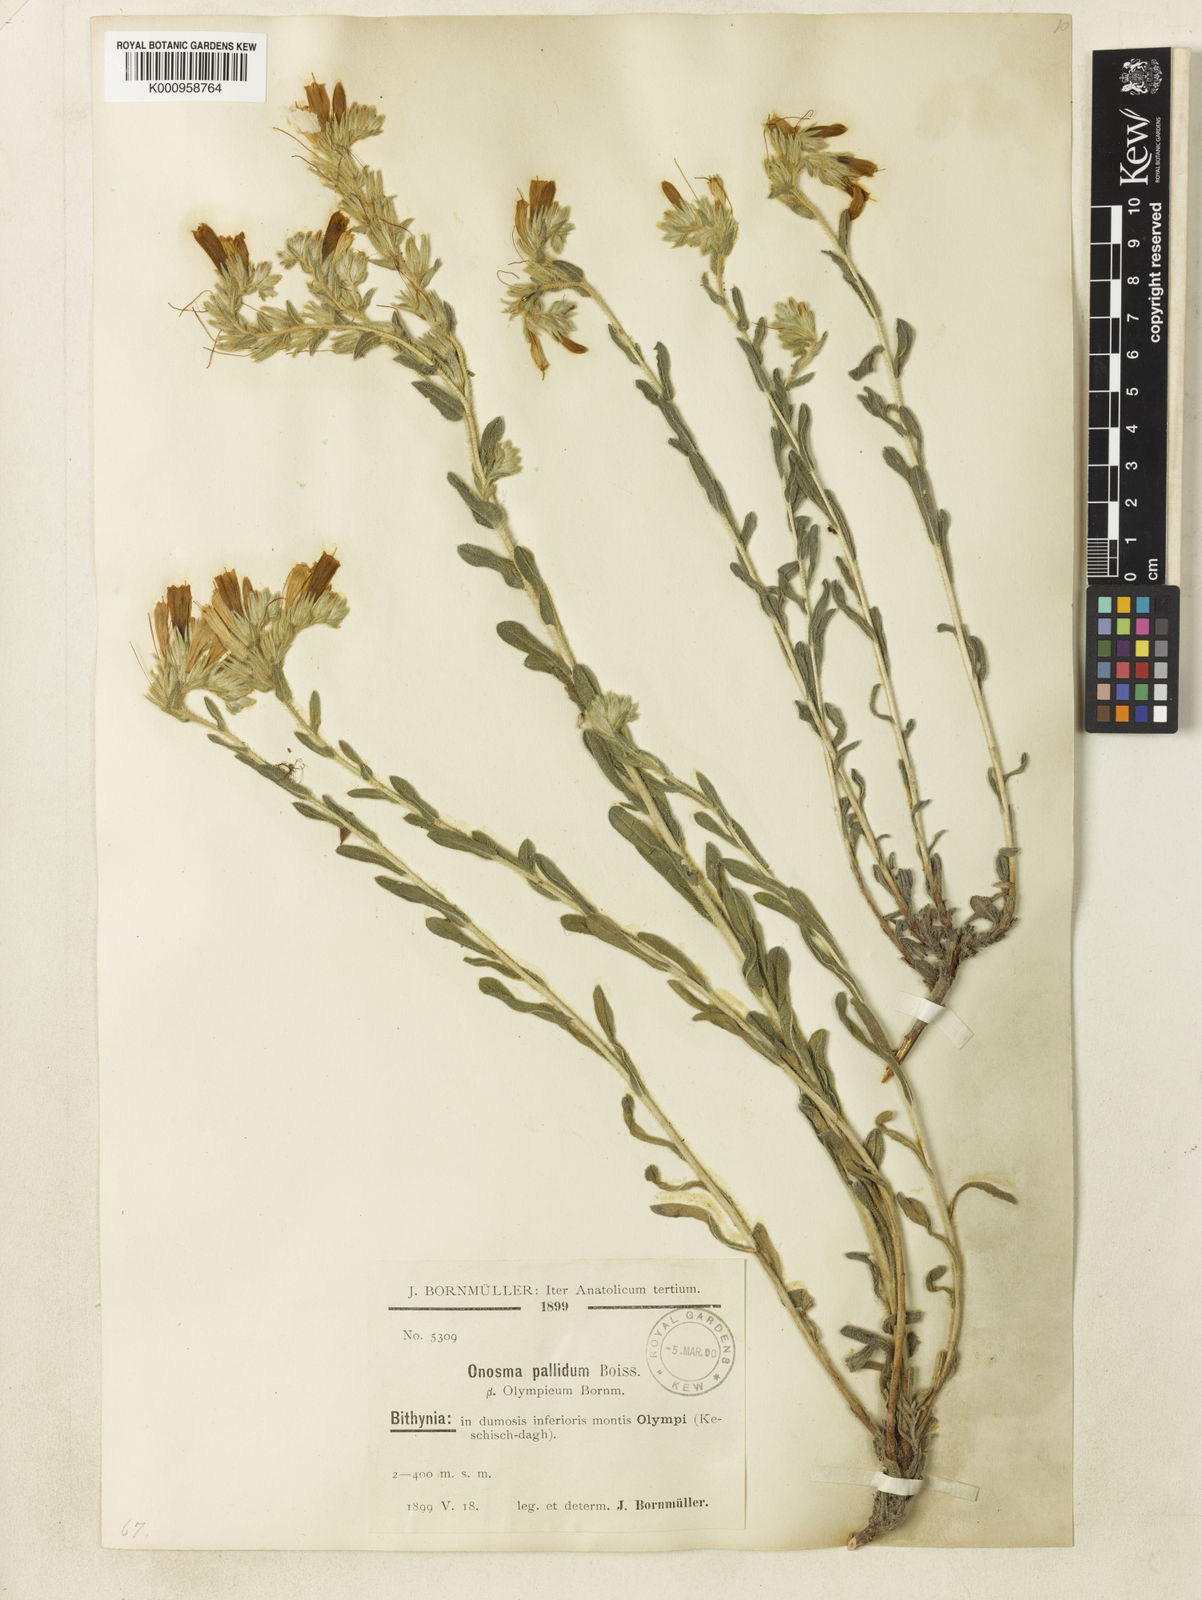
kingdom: Plantae
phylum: Tracheophyta
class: Magnoliopsida
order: Boraginales
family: Boraginaceae
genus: Onosma
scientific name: Onosma aucheriana
